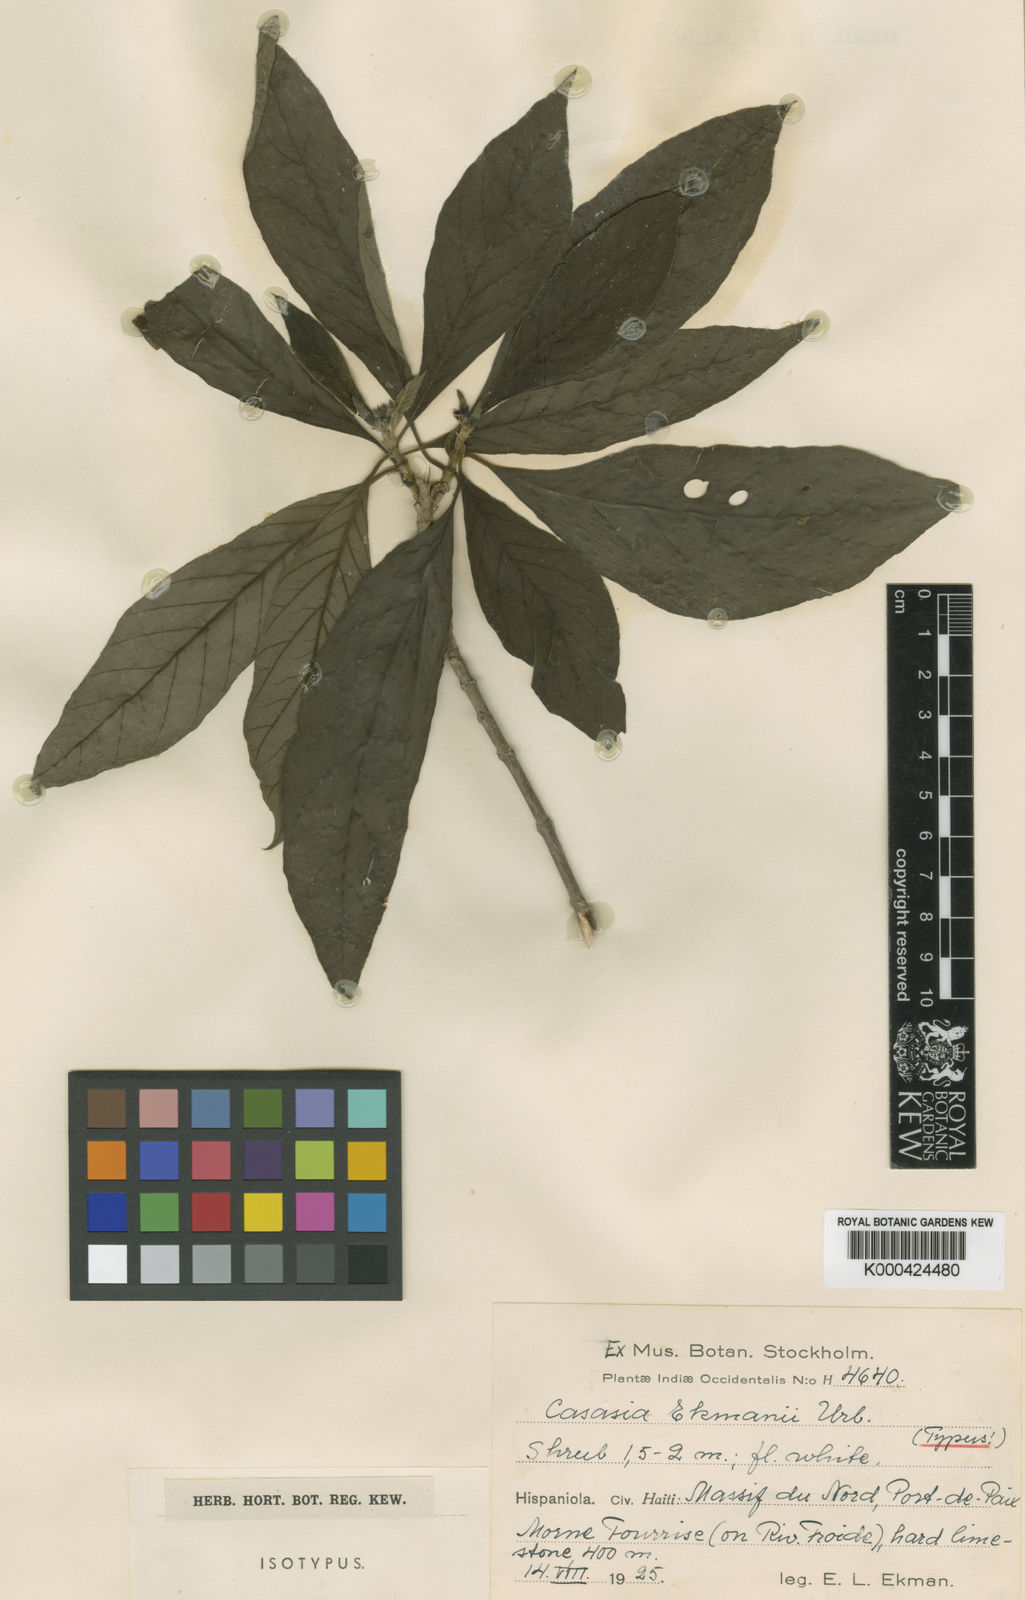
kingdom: Plantae
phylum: Tracheophyta
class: Magnoliopsida
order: Gentianales
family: Rubiaceae
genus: Casasia
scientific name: Casasia ekmanii
